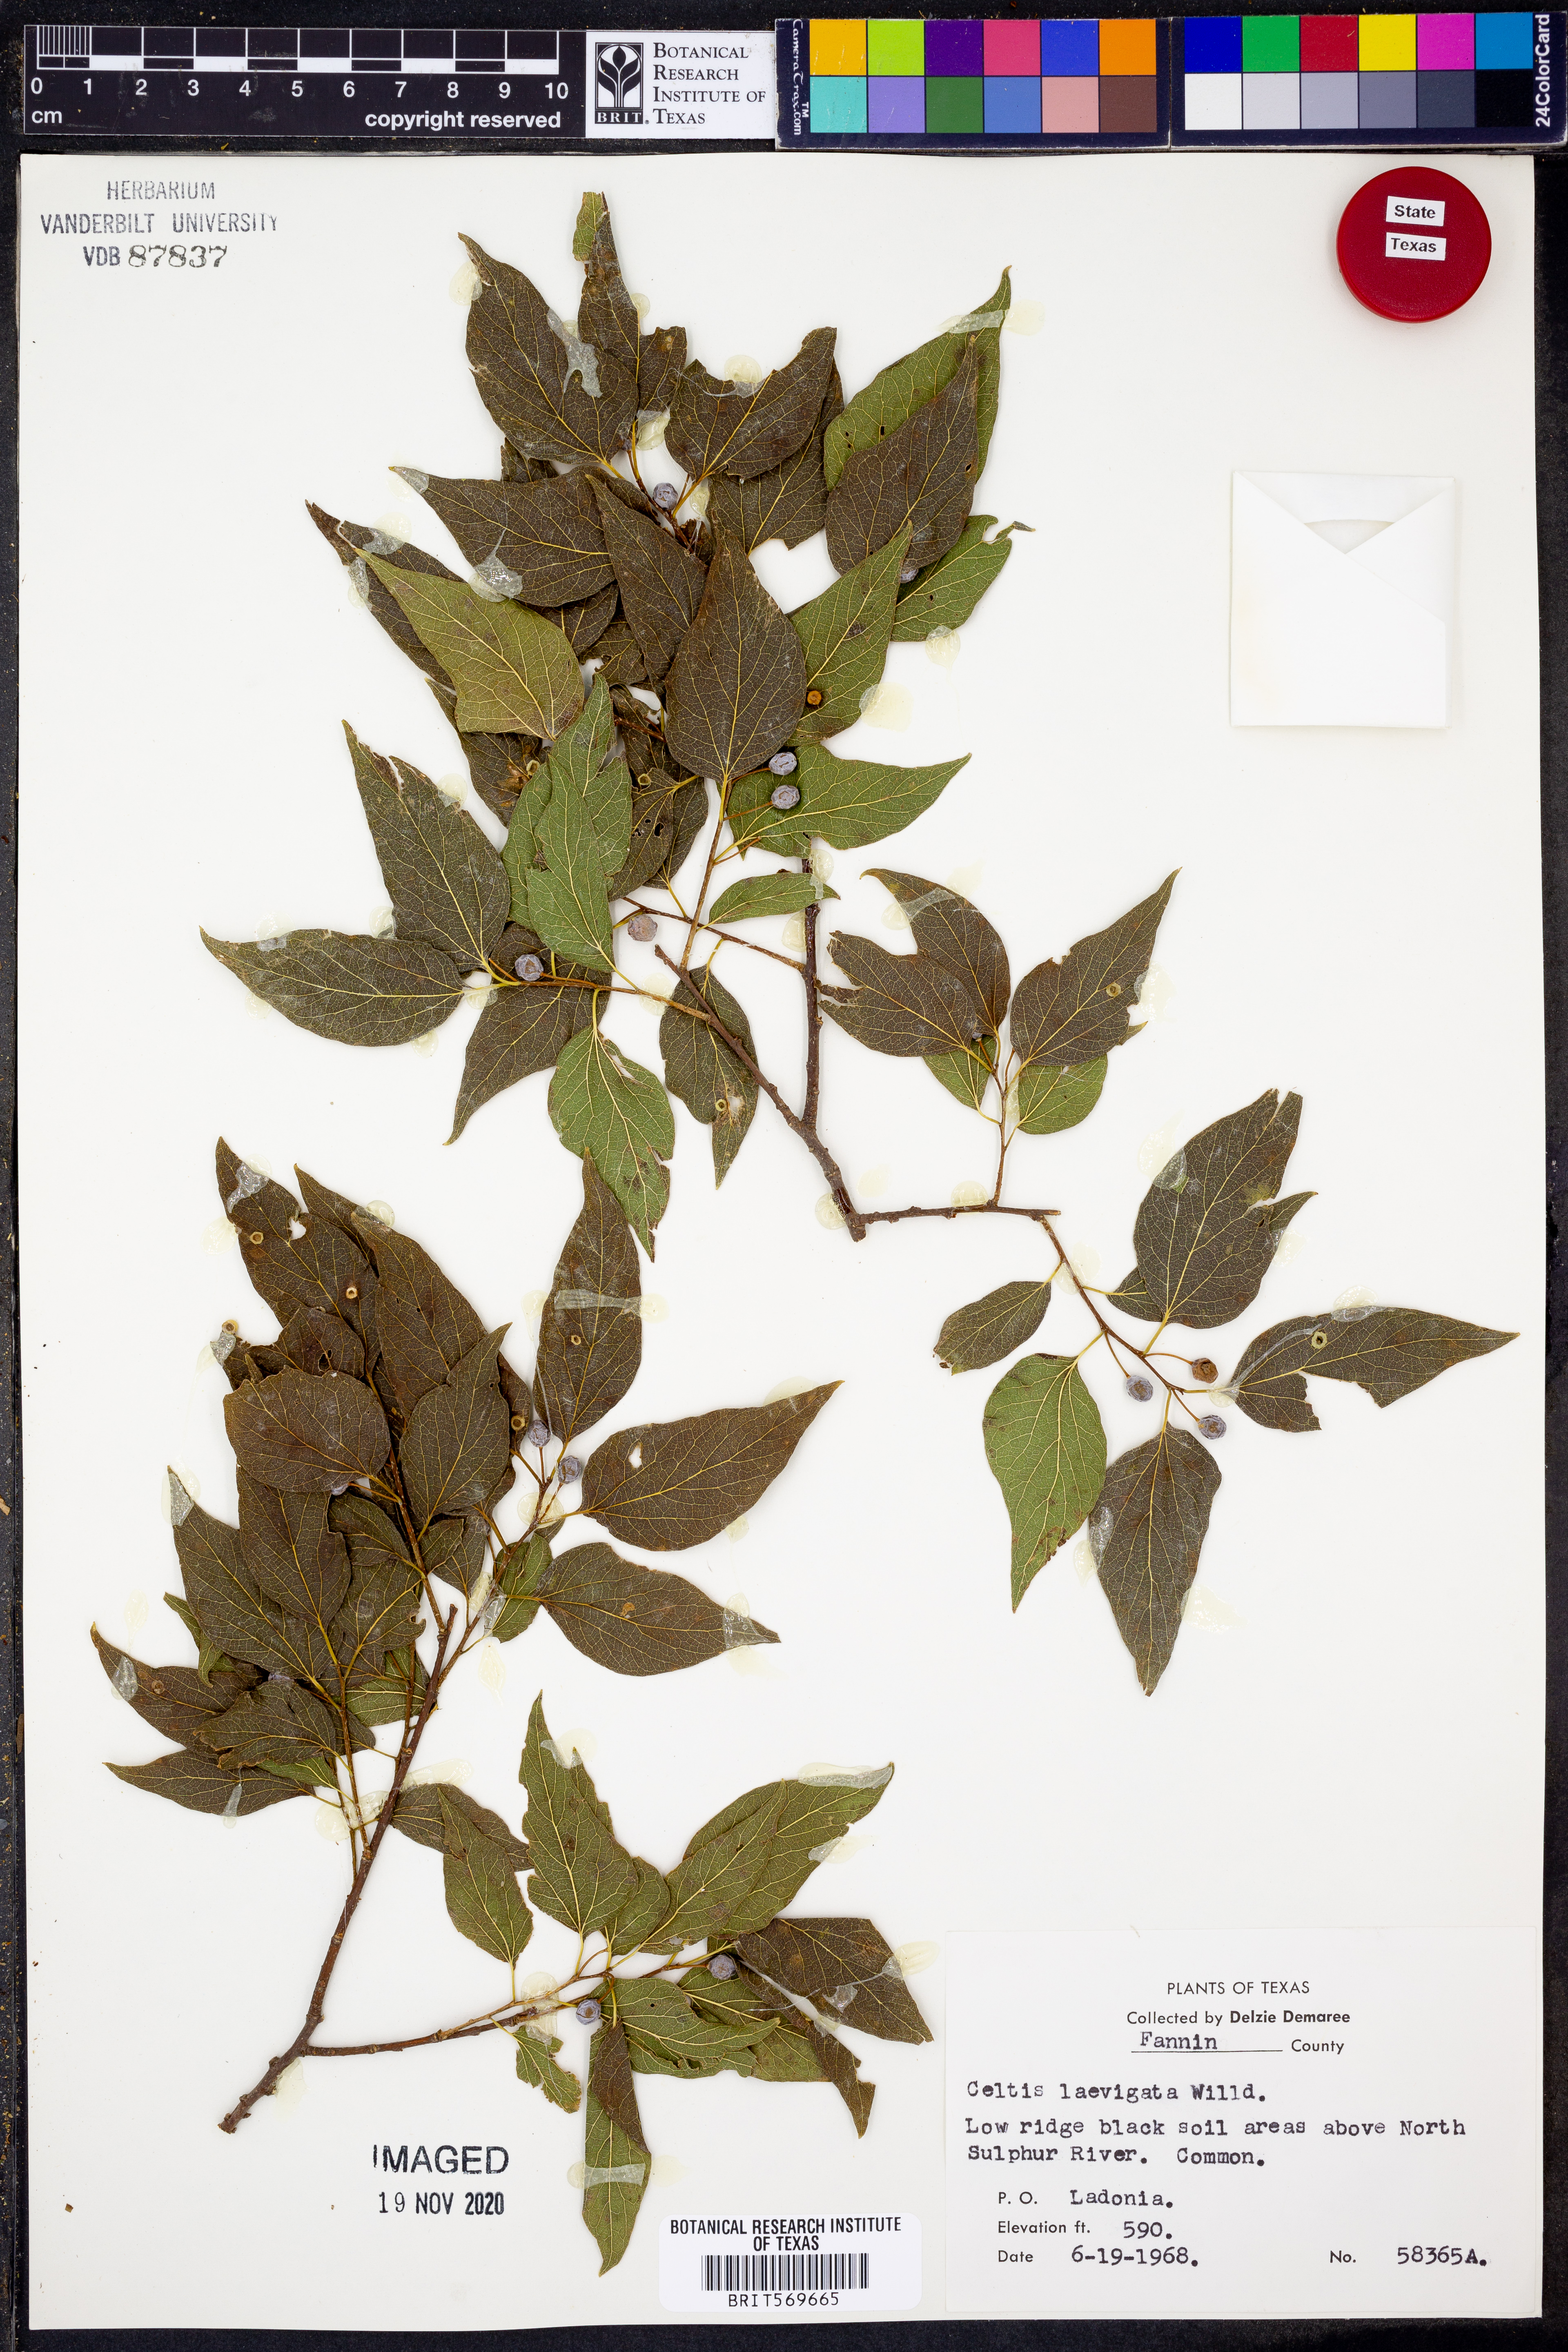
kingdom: Plantae
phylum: Tracheophyta
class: Magnoliopsida
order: Rosales
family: Cannabaceae
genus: Celtis
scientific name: Celtis laevigata
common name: Sugarberry
